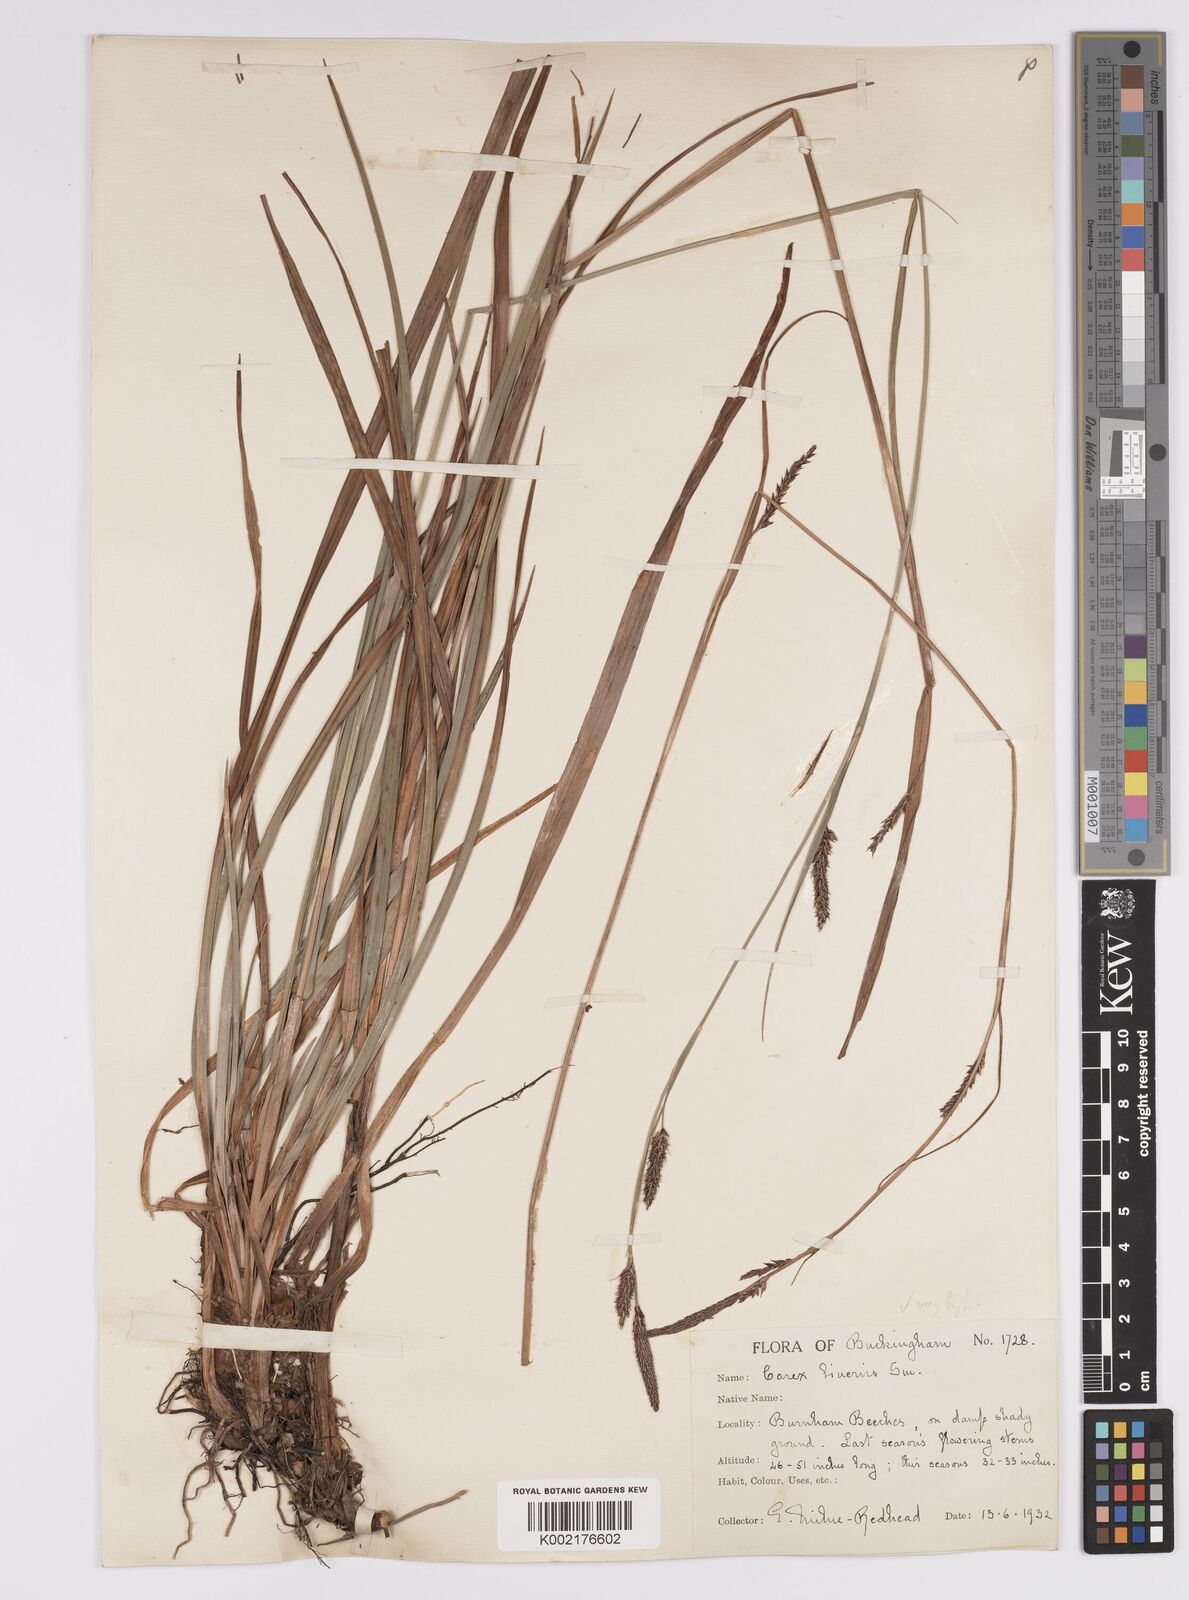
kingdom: Plantae
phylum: Tracheophyta
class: Liliopsida
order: Poales
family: Cyperaceae
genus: Carex
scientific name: Carex binervis
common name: Green-ribbed sedge
